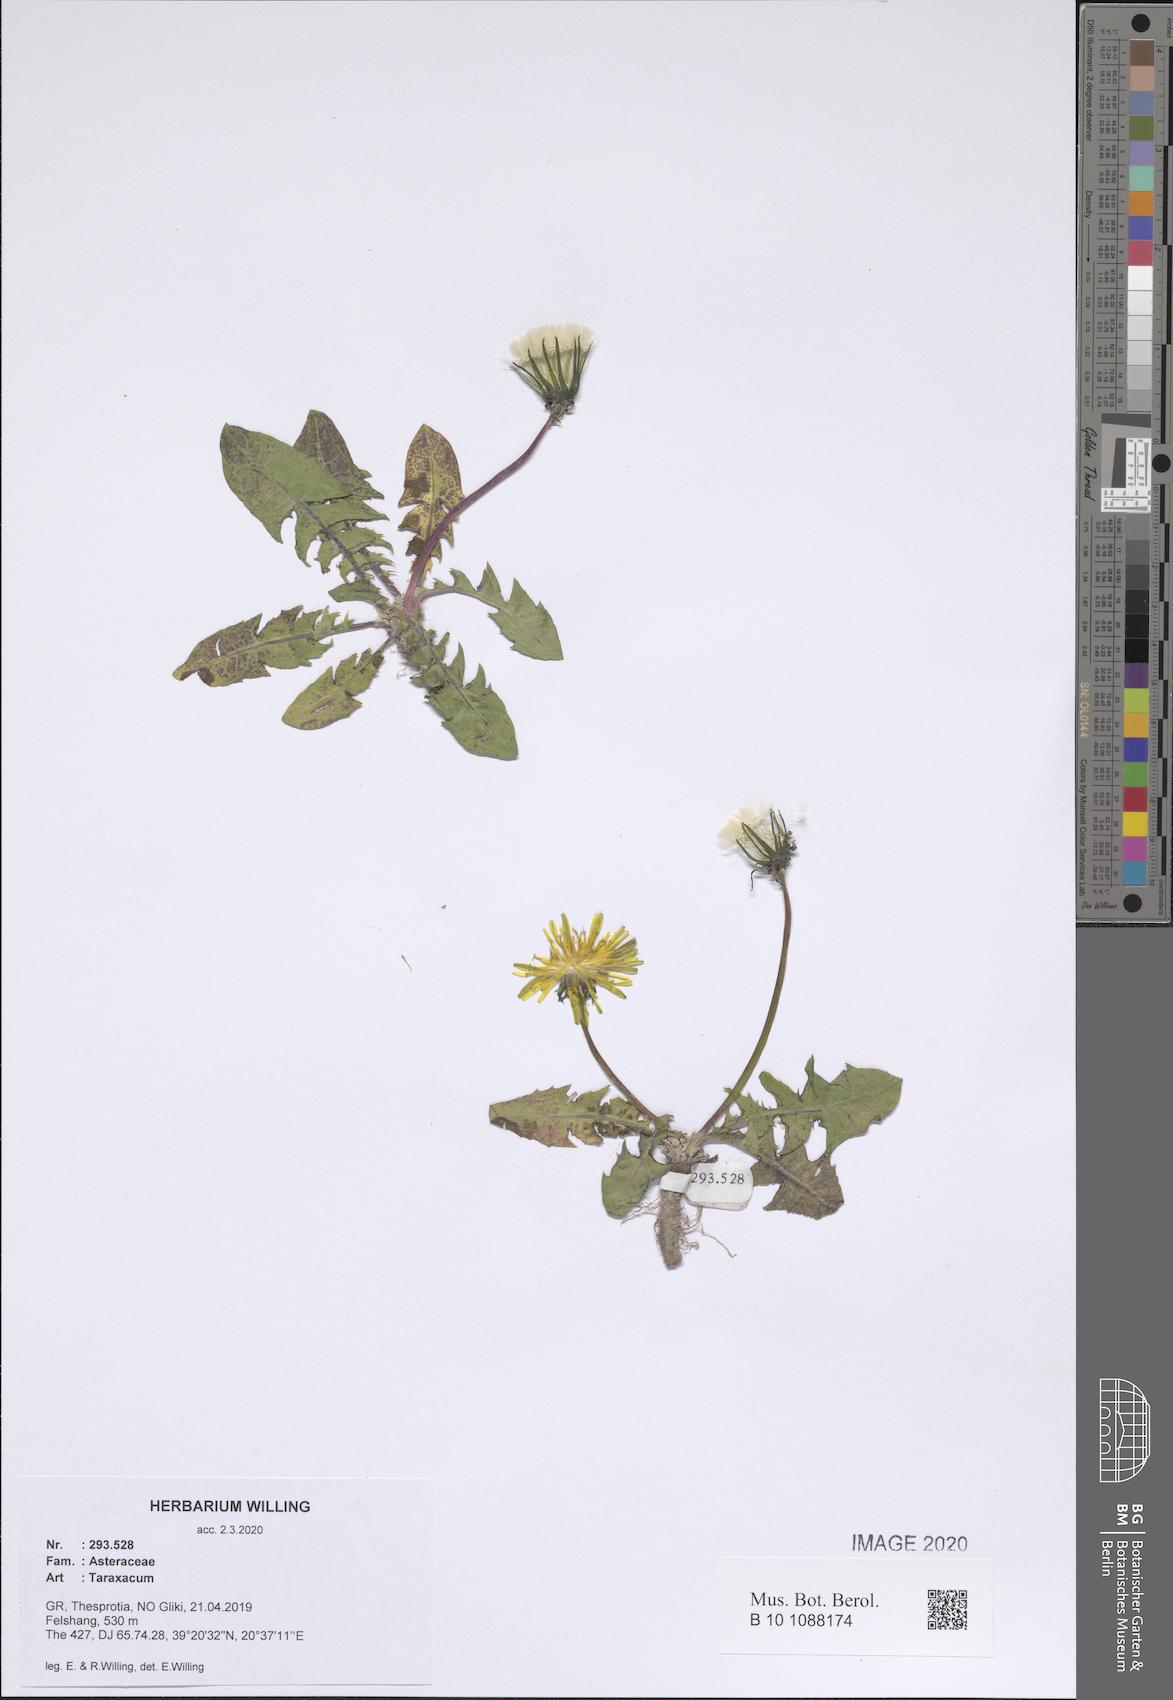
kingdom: Plantae
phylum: Tracheophyta
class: Magnoliopsida
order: Asterales
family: Asteraceae
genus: Taraxacum
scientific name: Taraxacum
